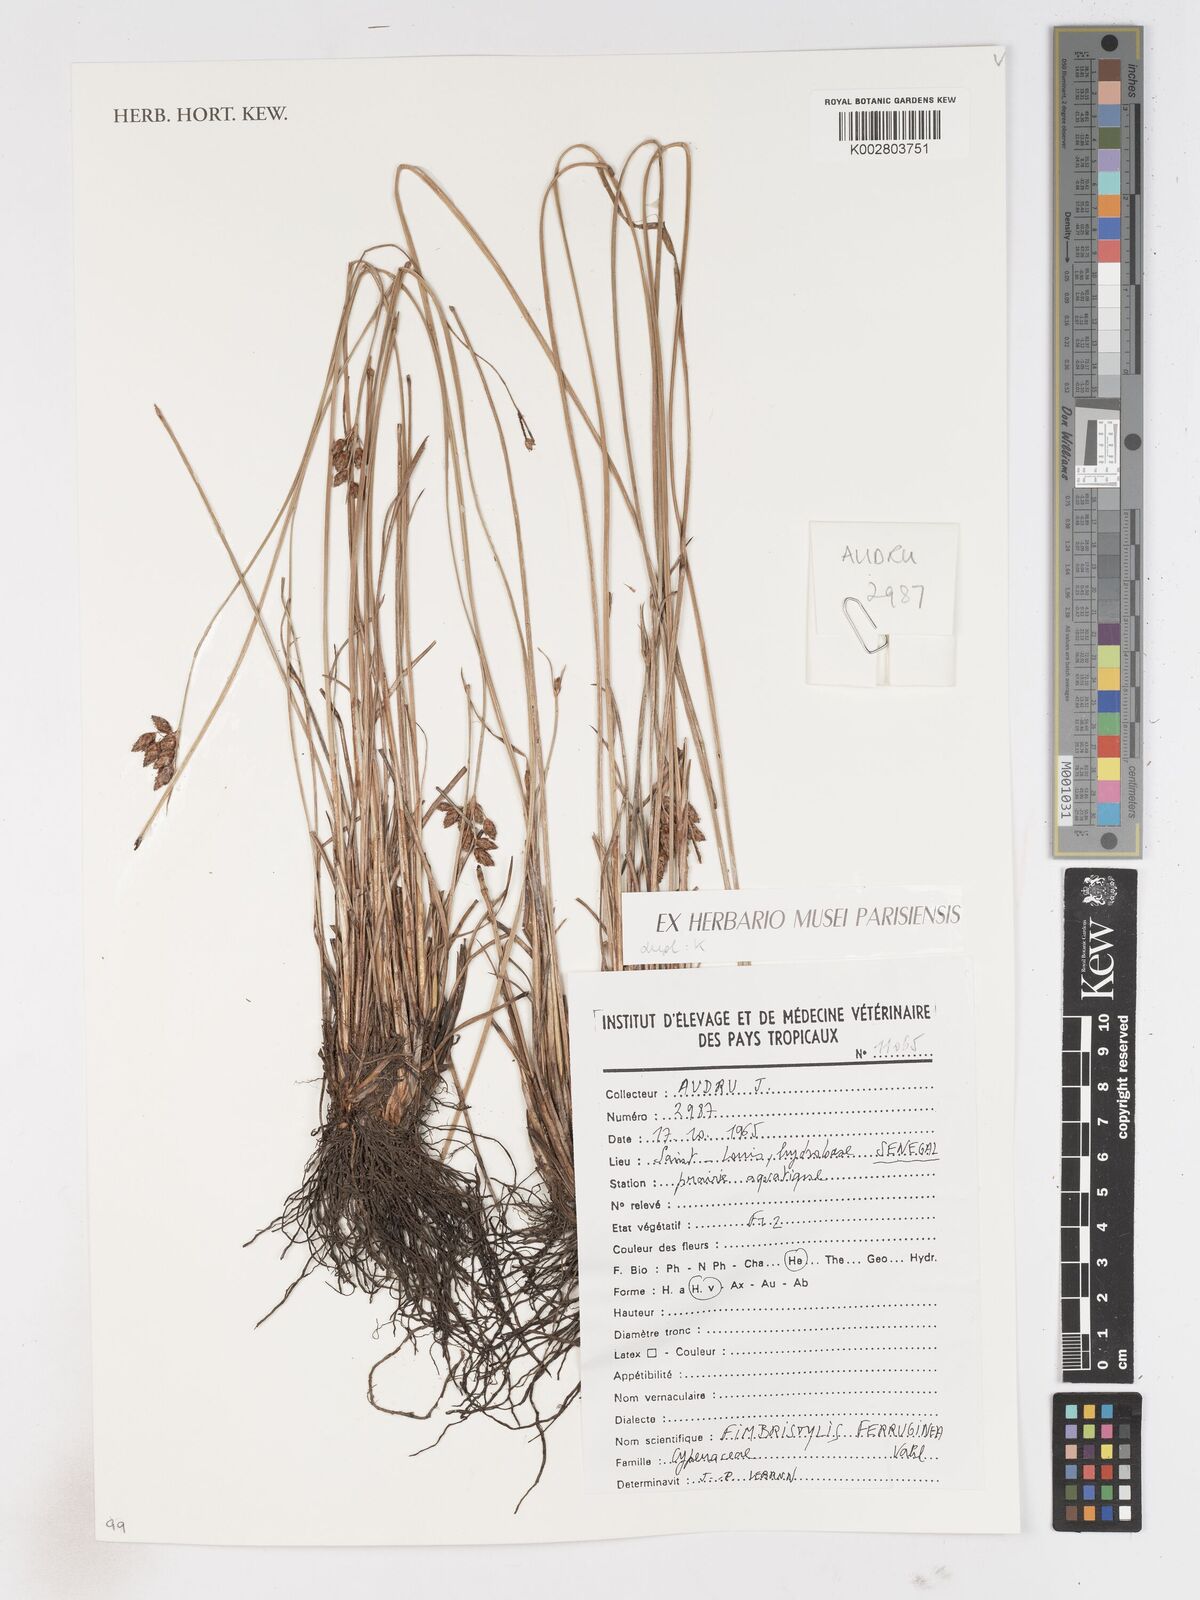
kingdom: Plantae
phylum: Tracheophyta
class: Liliopsida
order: Poales
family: Cyperaceae
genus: Fimbristylis
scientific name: Fimbristylis ferruginea
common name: West indian fimbry
